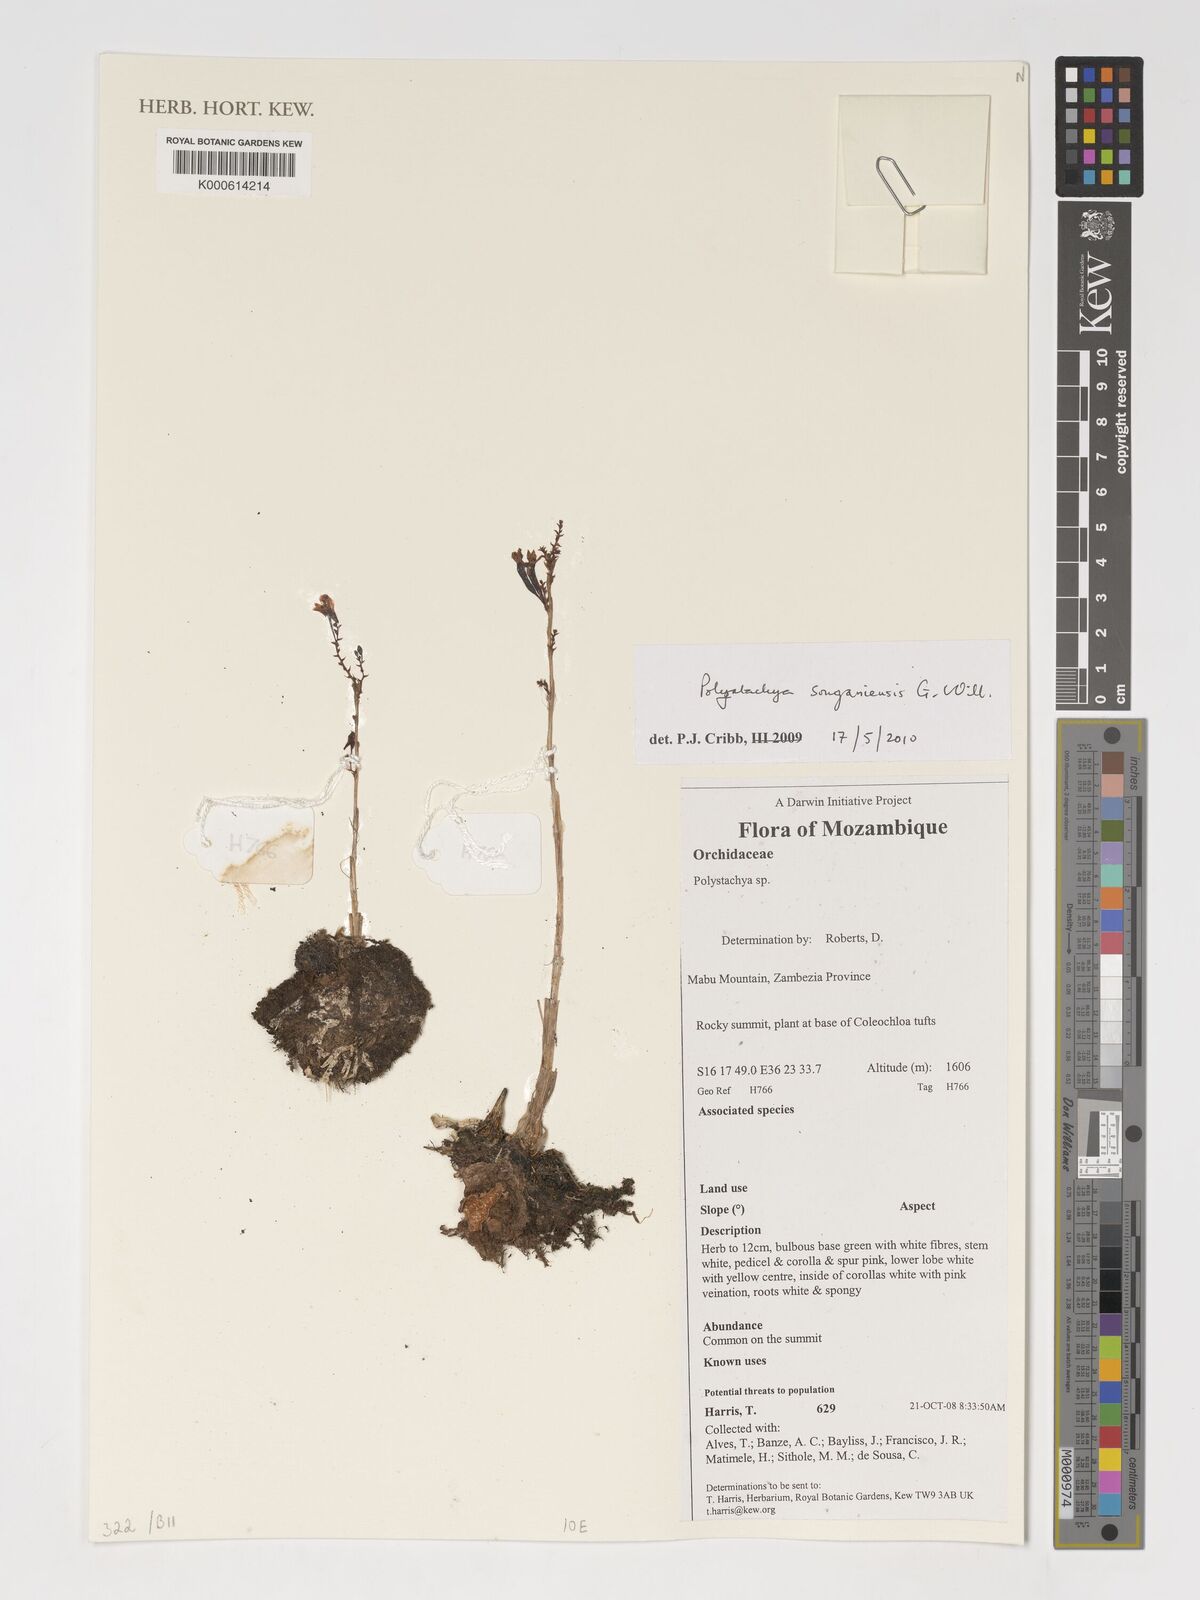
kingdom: Plantae
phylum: Tracheophyta
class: Liliopsida
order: Asparagales
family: Orchidaceae
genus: Polystachya
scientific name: Polystachya songaniensis
